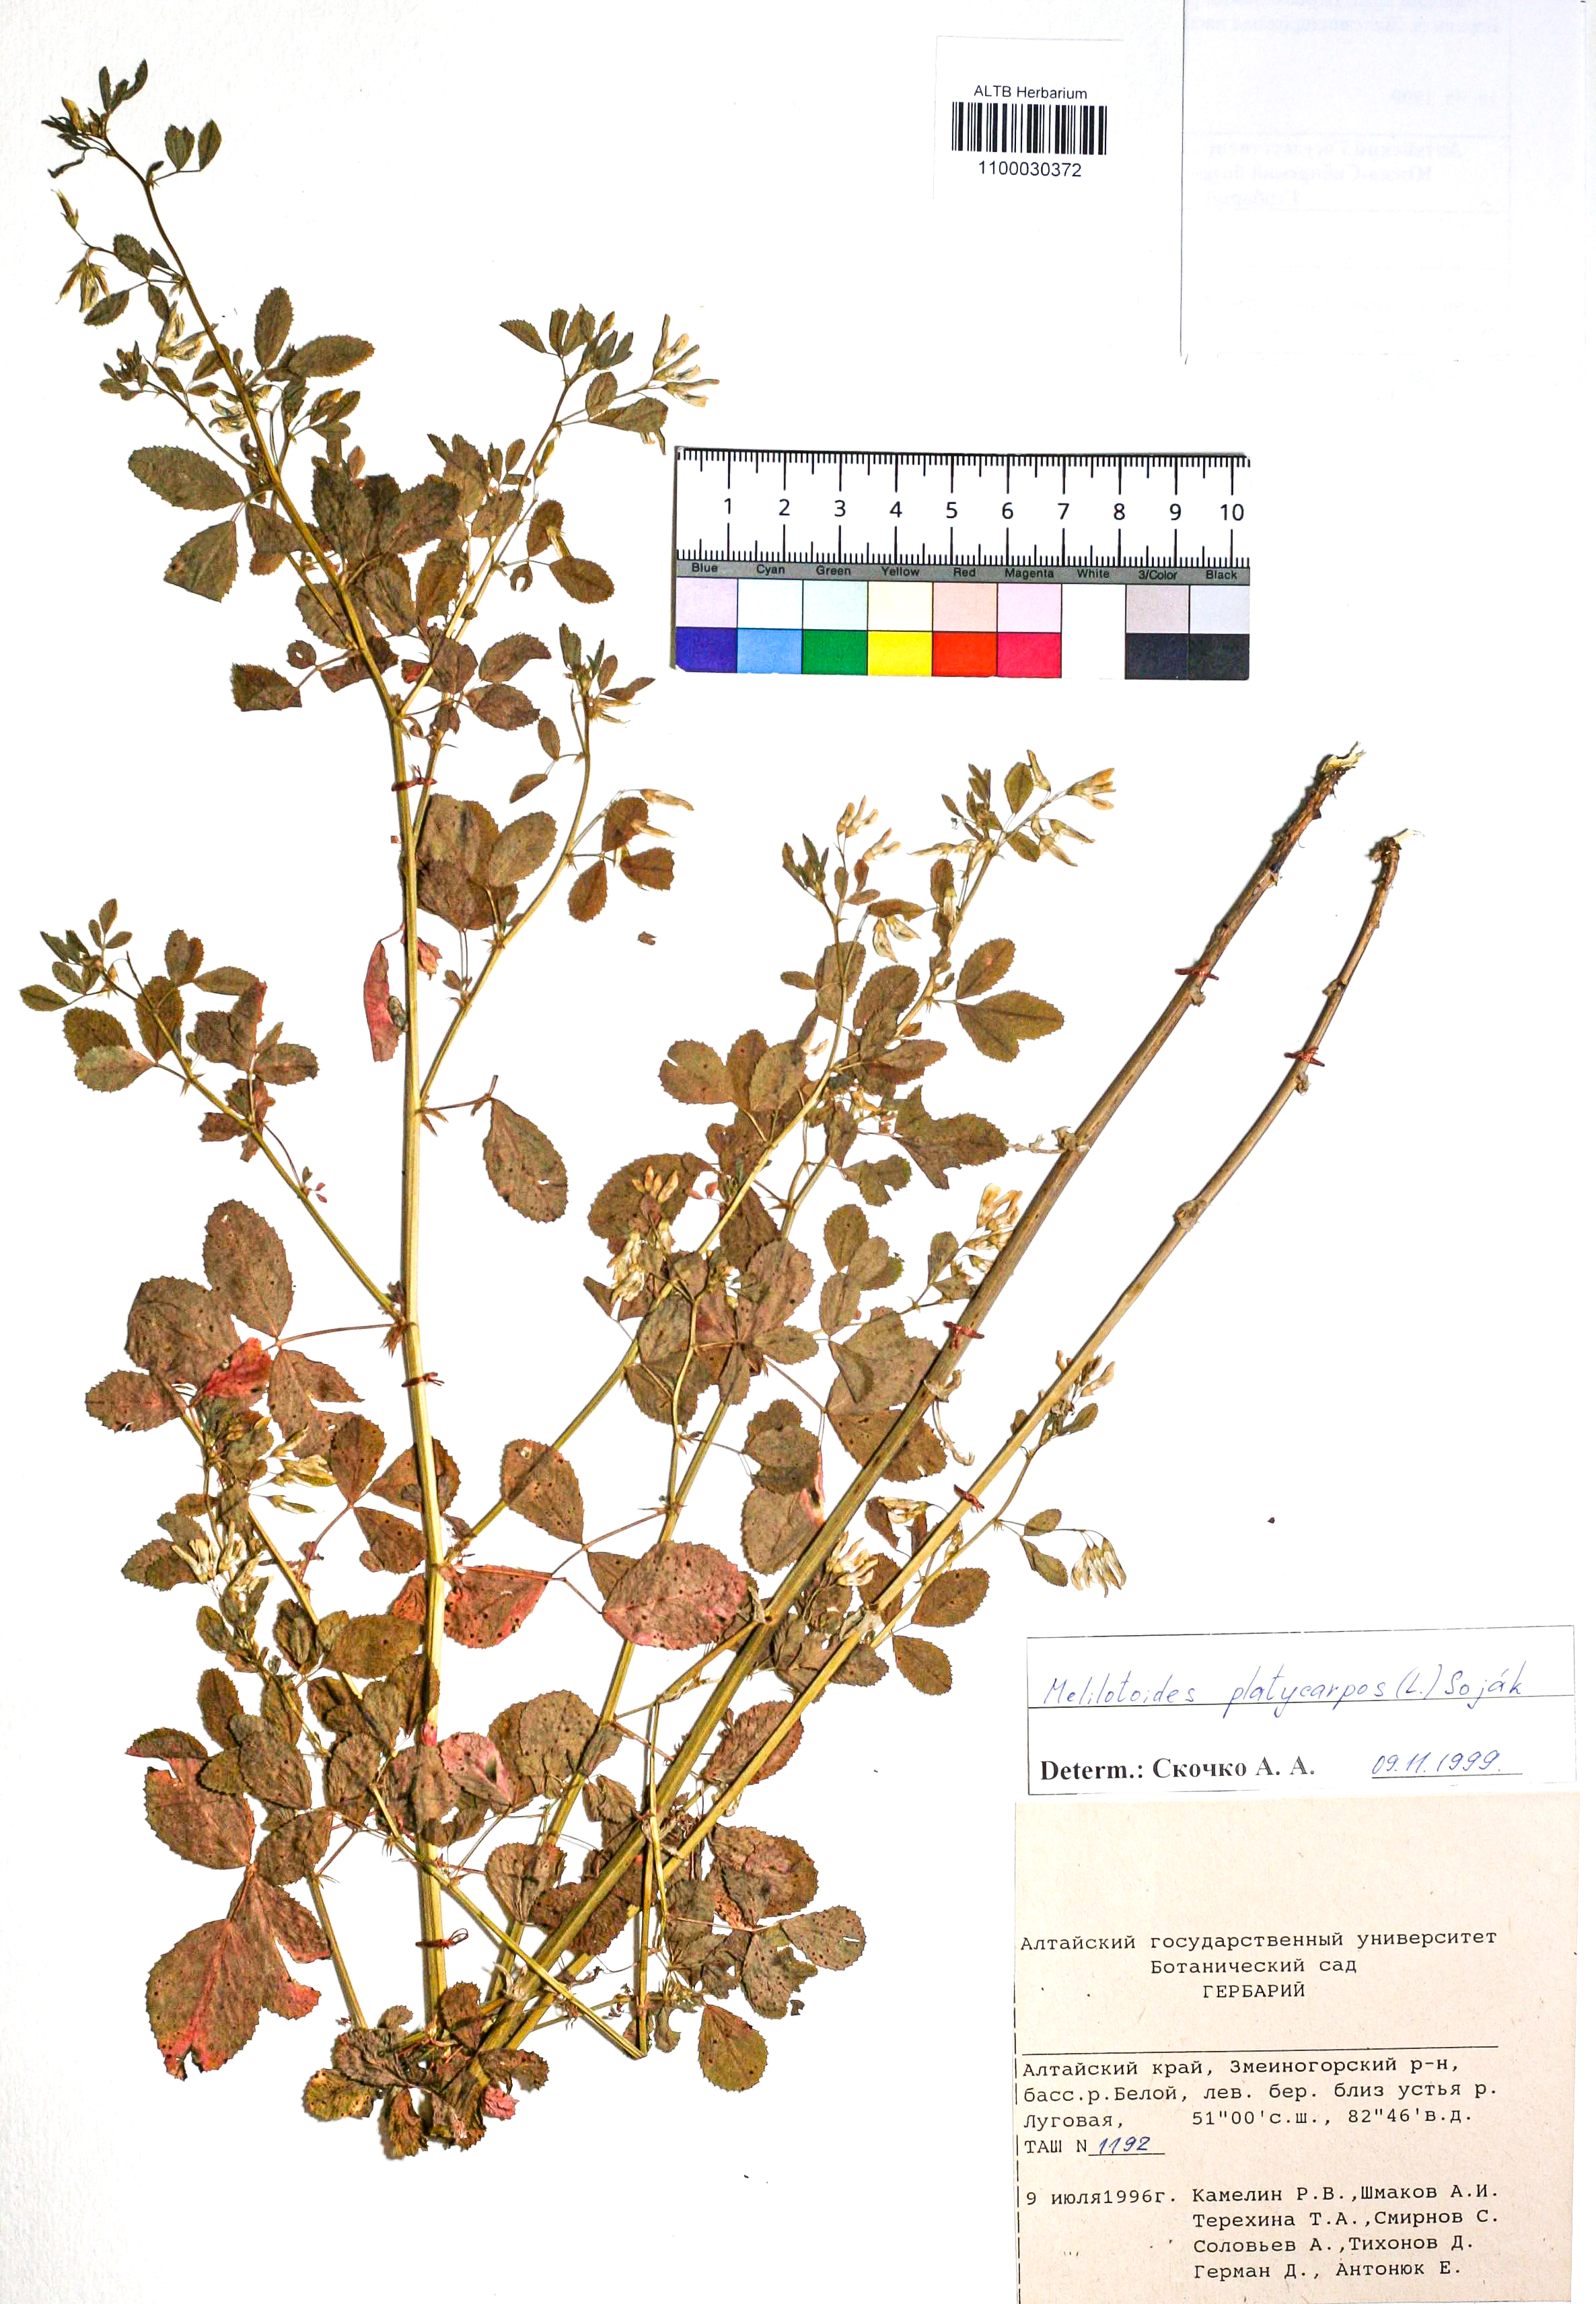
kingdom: Plantae
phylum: Tracheophyta
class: Magnoliopsida
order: Fabales
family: Fabaceae
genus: Medicago
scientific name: Medicago platycarpos
